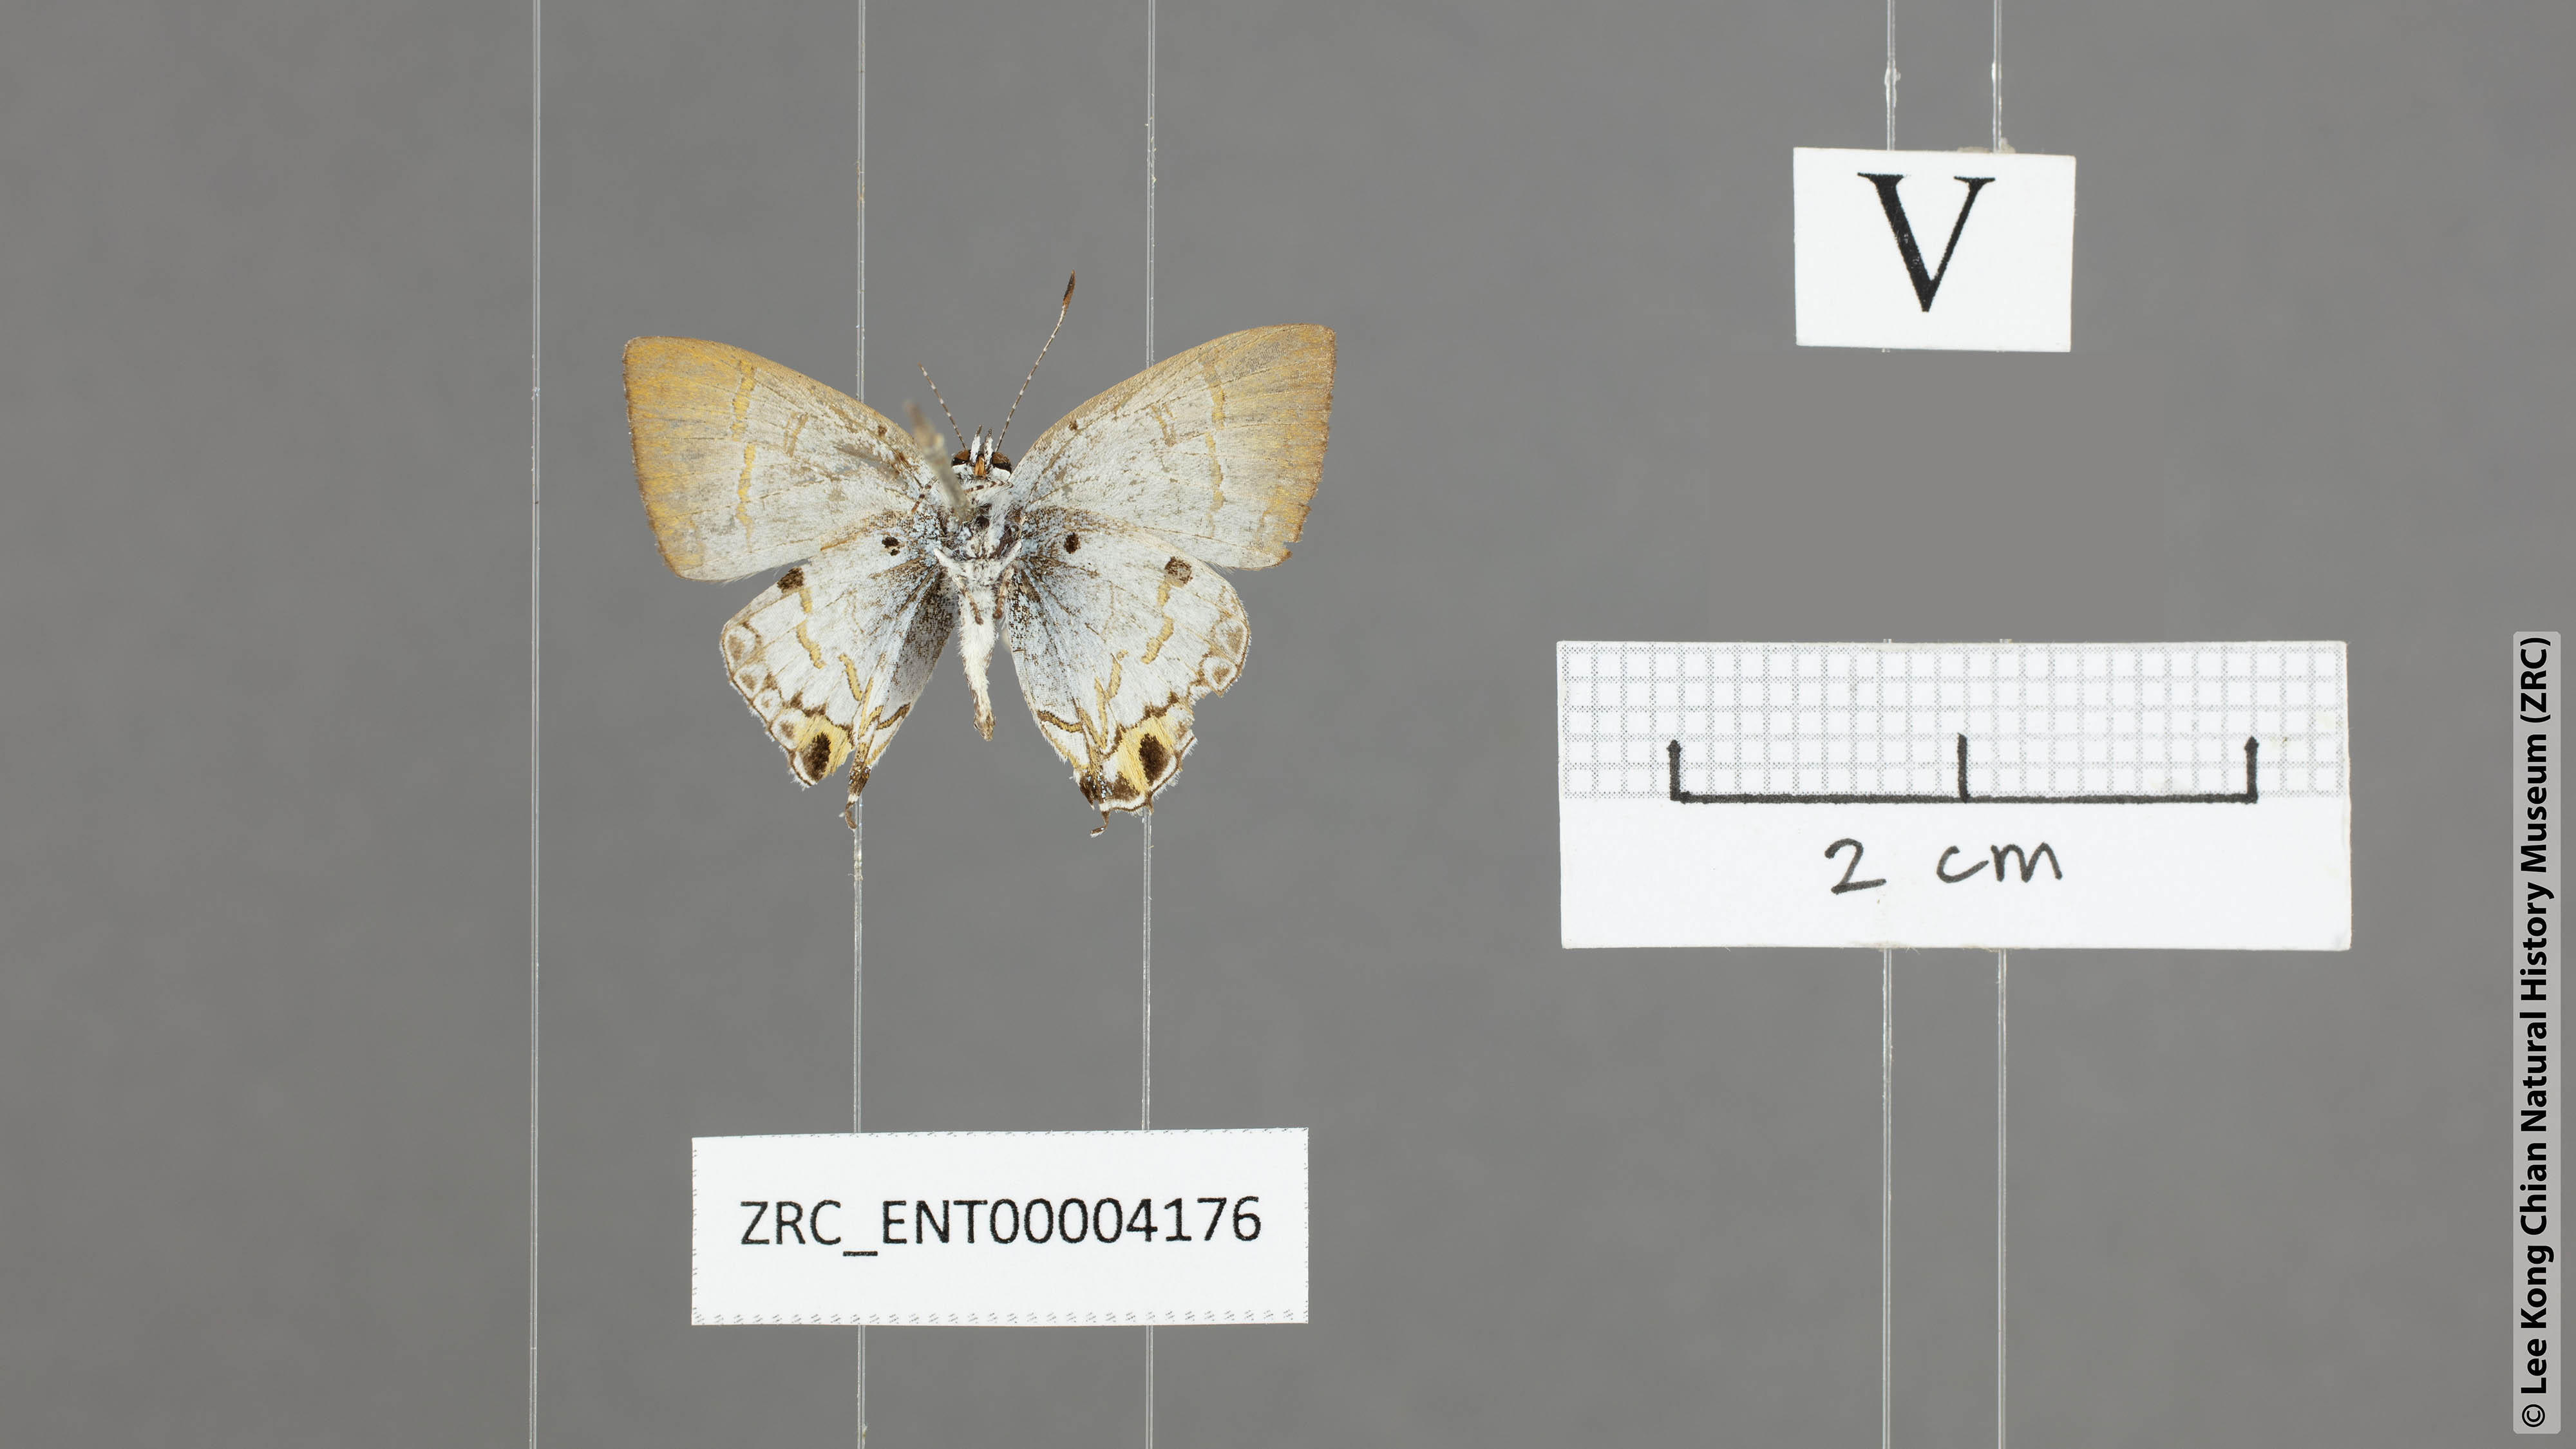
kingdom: Animalia
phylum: Arthropoda
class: Insecta
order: Lepidoptera
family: Lycaenidae
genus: Chliaria
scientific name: Chliaria othona
